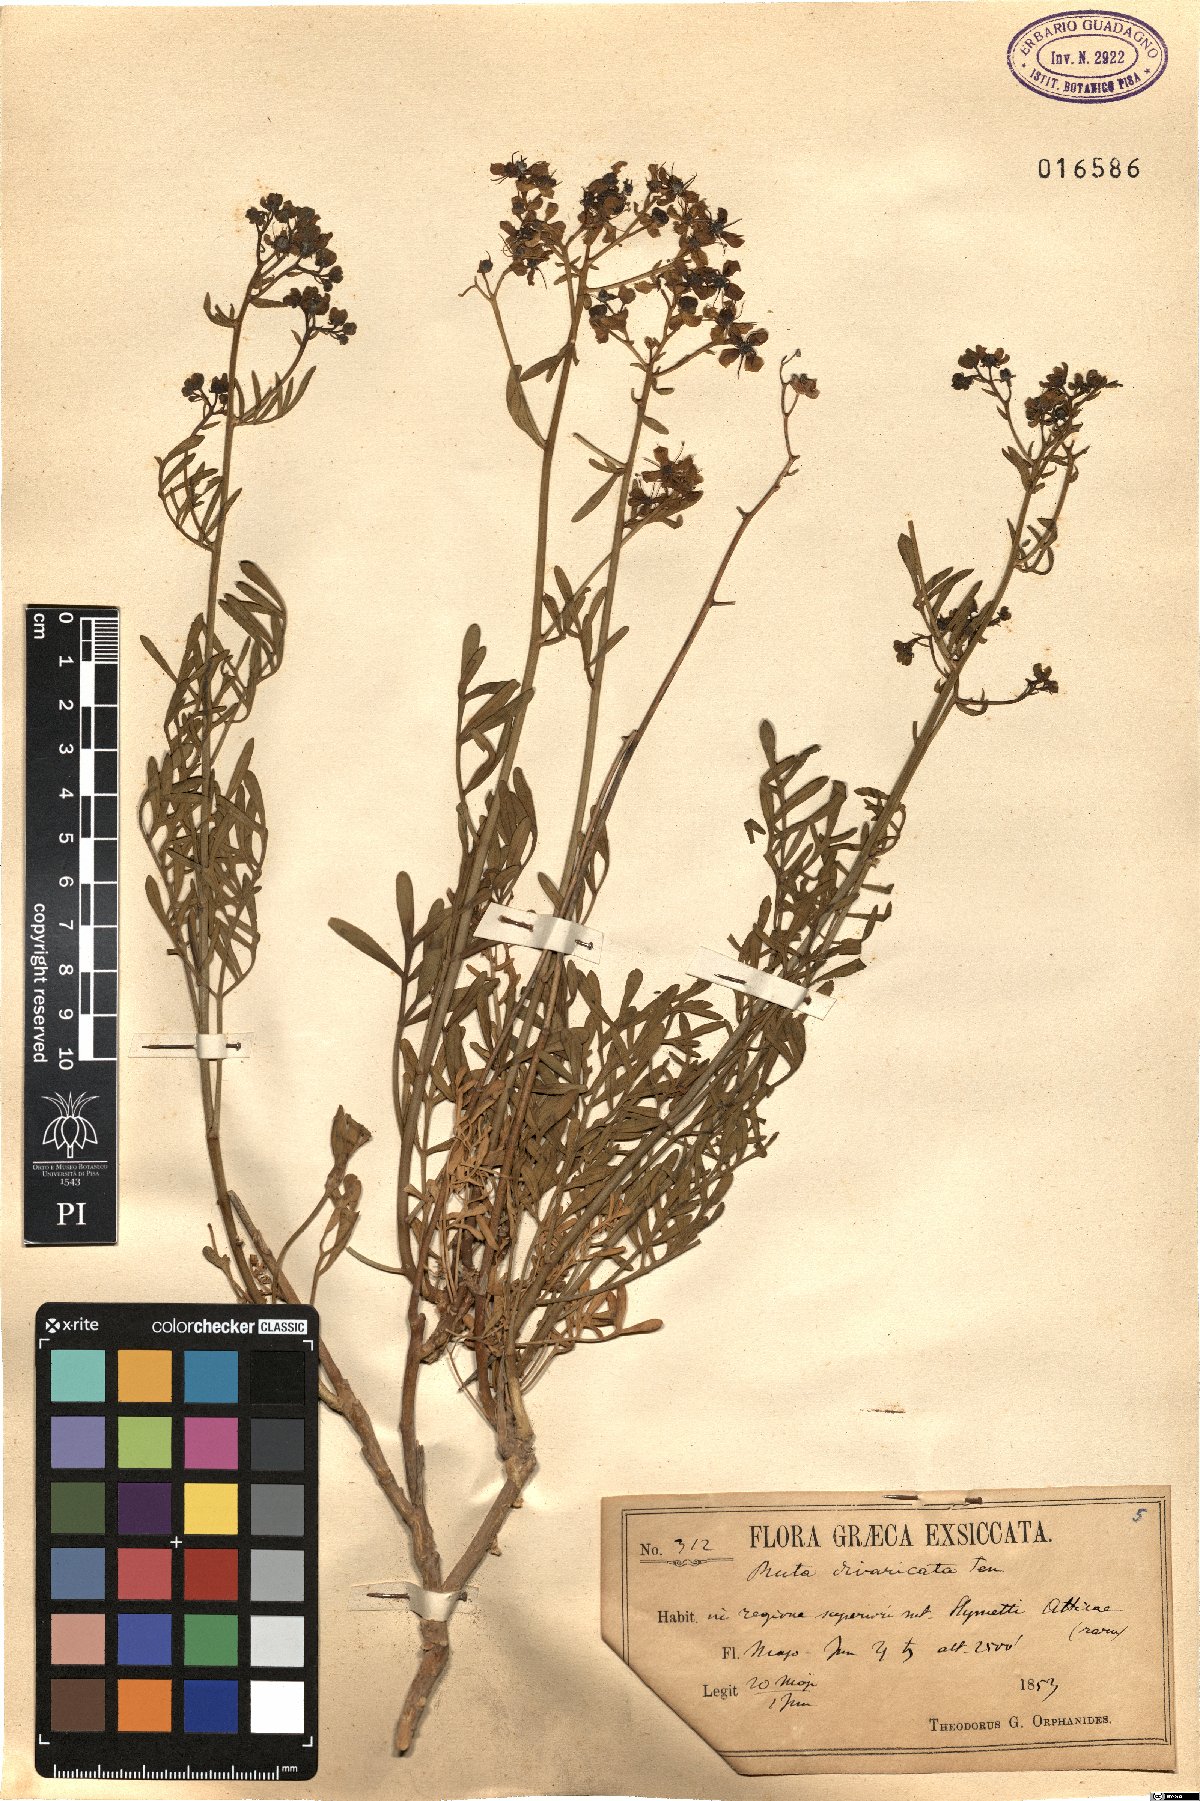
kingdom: Plantae
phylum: Tracheophyta
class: Magnoliopsida
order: Sapindales
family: Rutaceae
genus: Ruta
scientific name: Ruta graveolens
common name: Common rue
